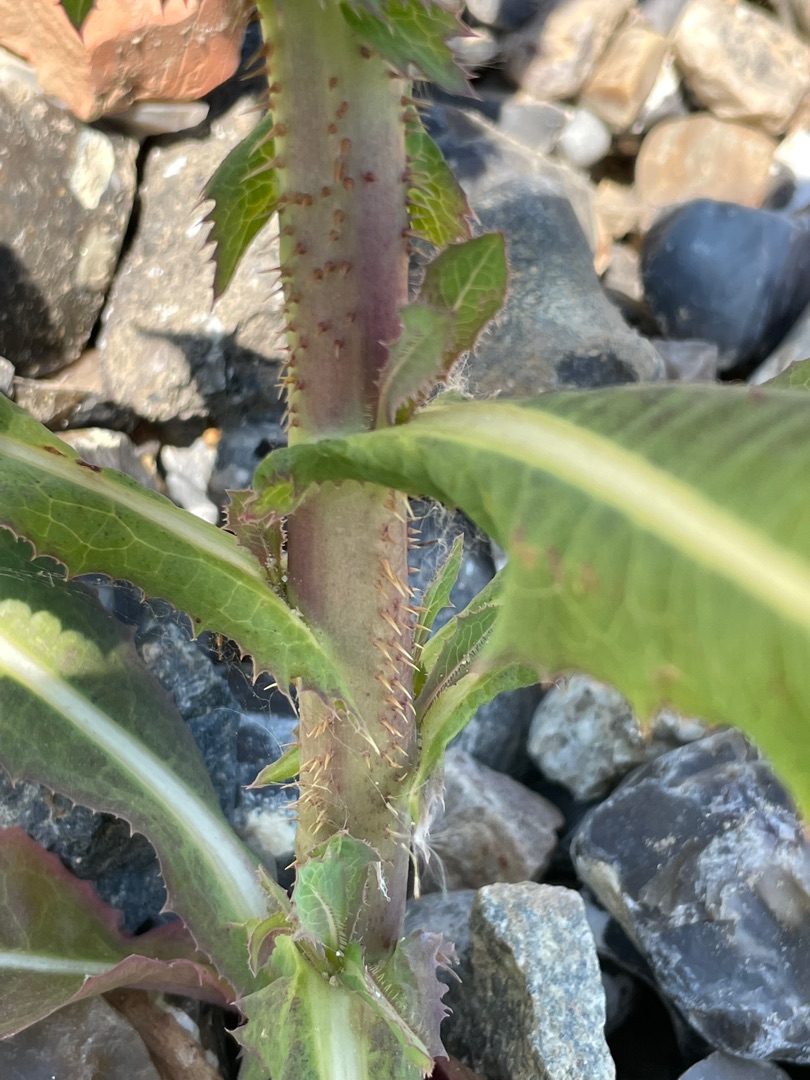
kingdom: Plantae
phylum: Tracheophyta
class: Magnoliopsida
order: Asterales
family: Asteraceae
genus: Lactuca
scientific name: Lactuca serriola
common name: Tornet salat
